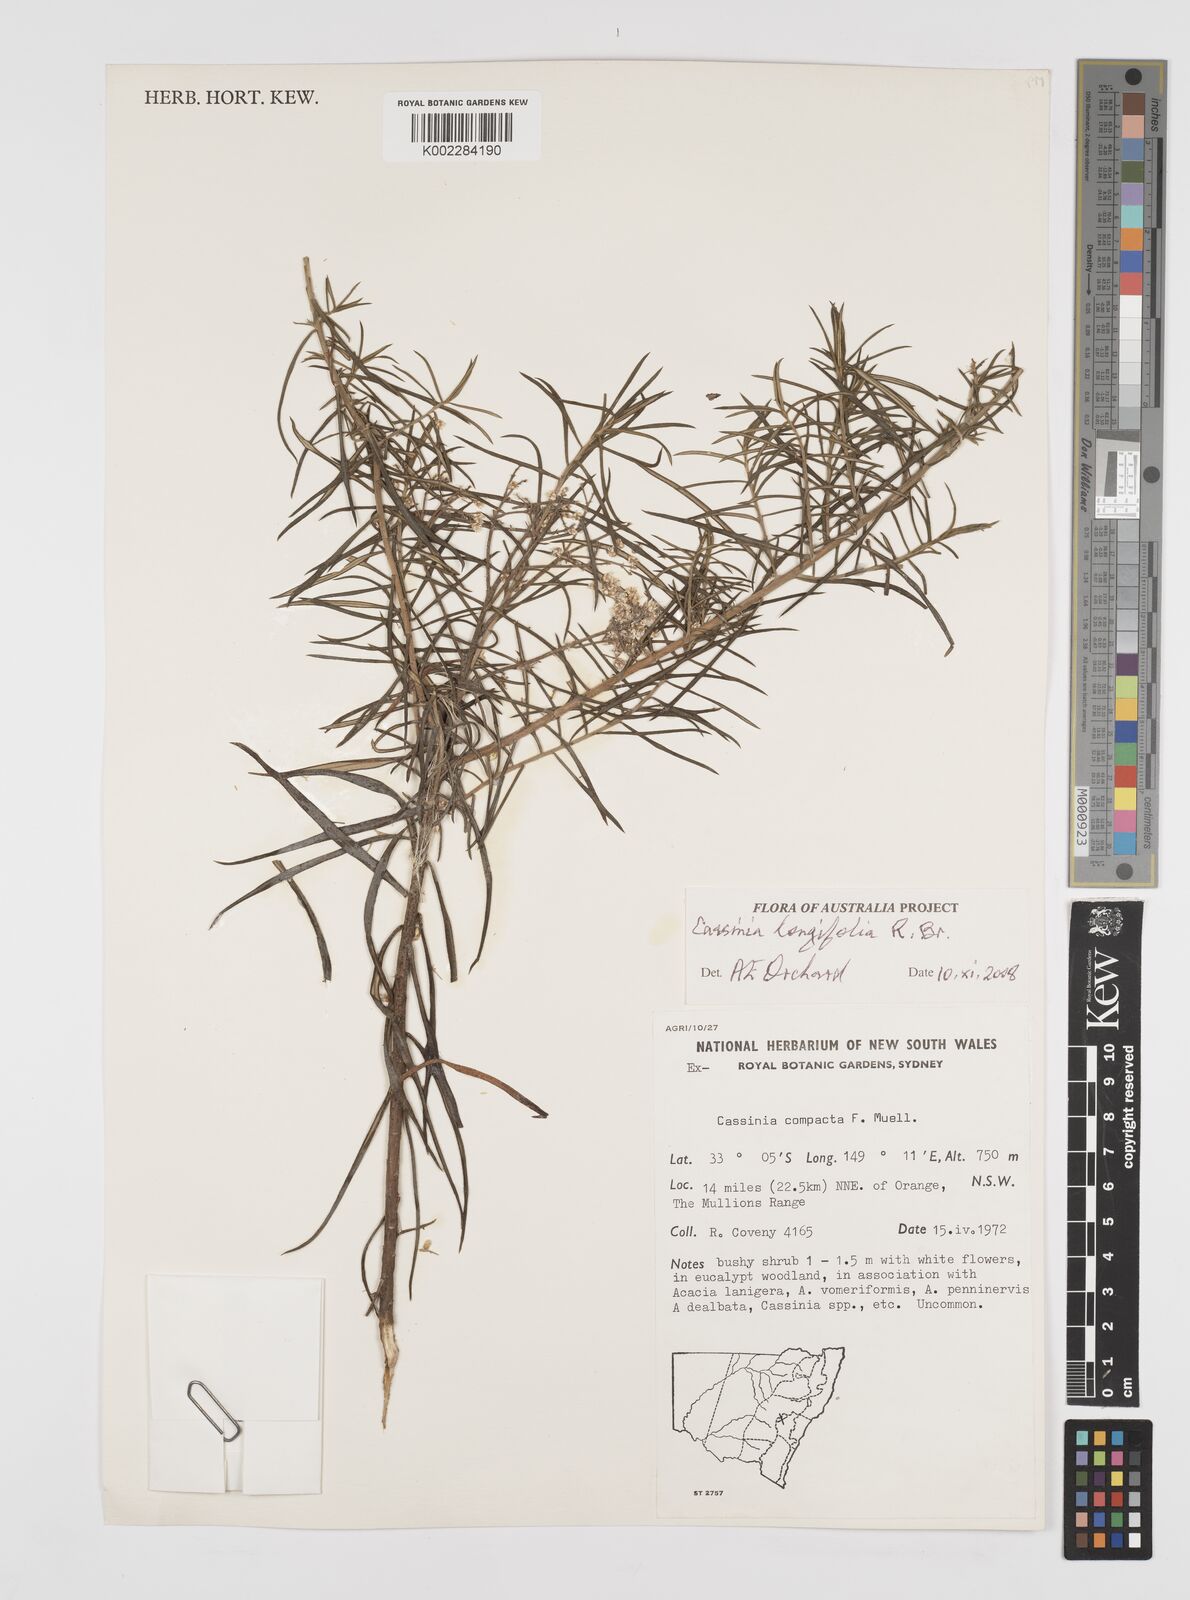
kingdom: Plantae
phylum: Tracheophyta
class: Magnoliopsida
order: Asterales
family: Asteraceae
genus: Cassinia
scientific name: Cassinia longifolia
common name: Longleaf-dogwood
